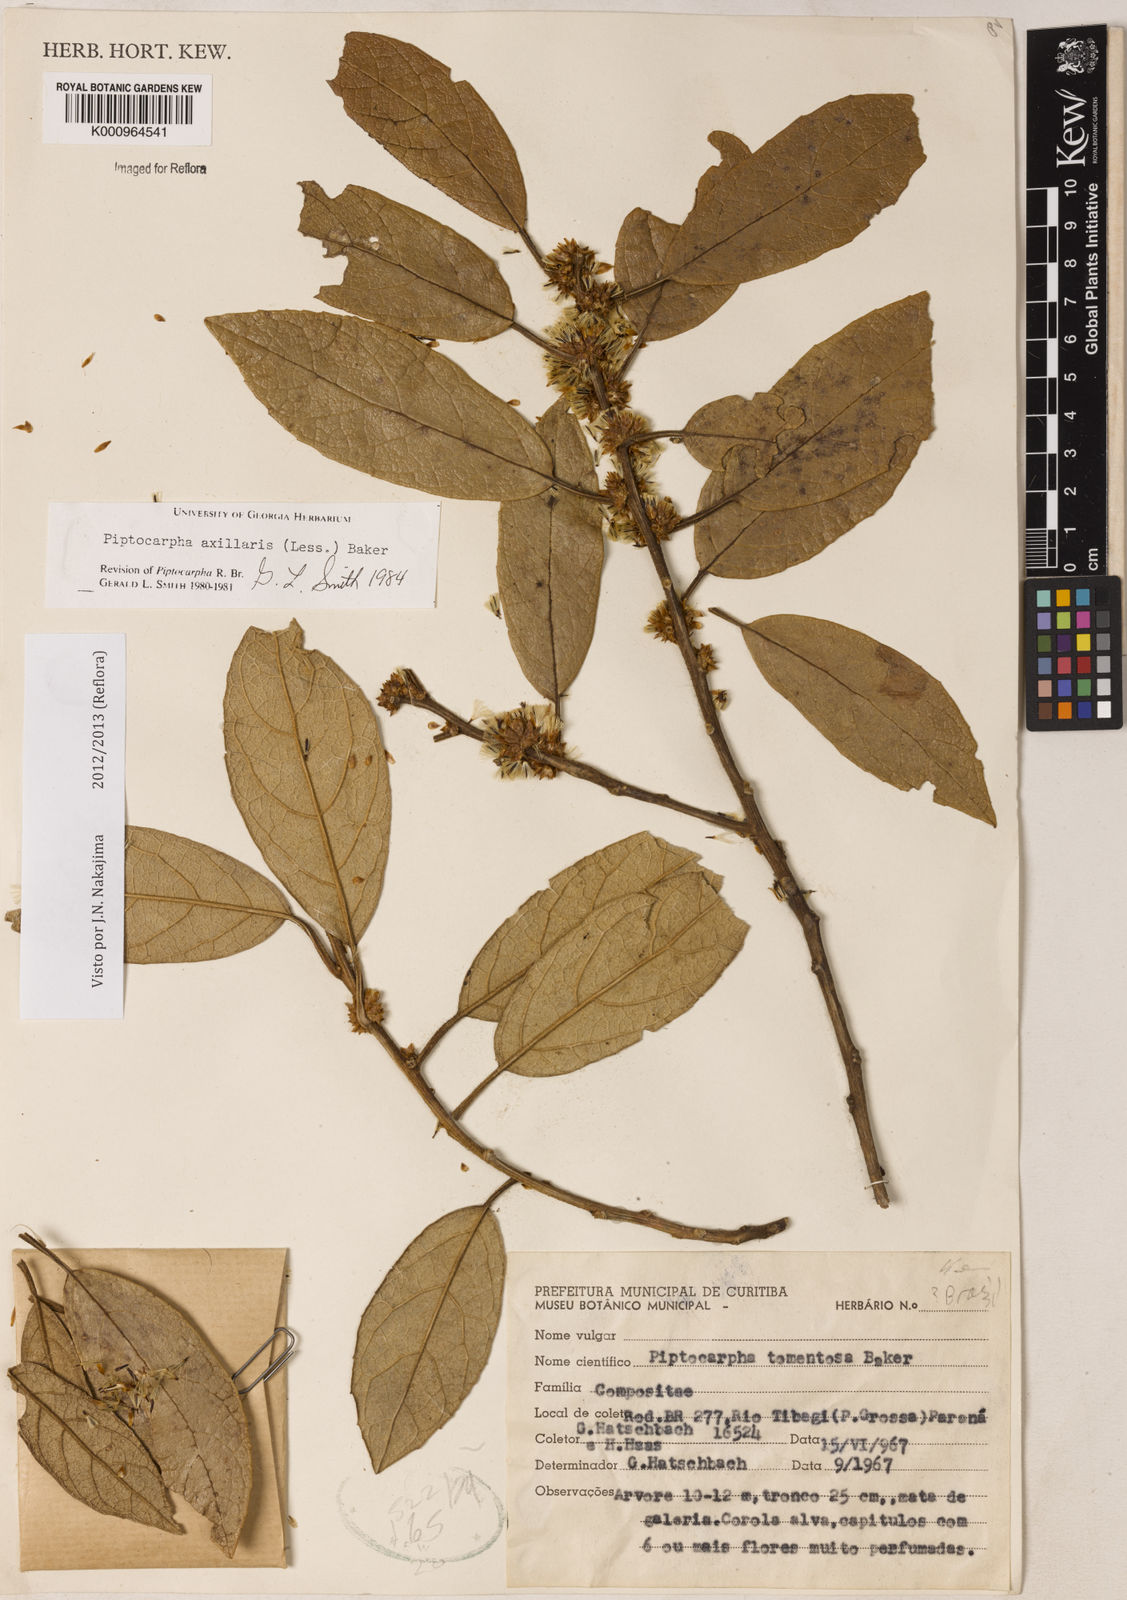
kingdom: Plantae
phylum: Tracheophyta
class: Magnoliopsida
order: Asterales
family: Asteraceae
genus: Piptocarpha
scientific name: Piptocarpha axillaris
